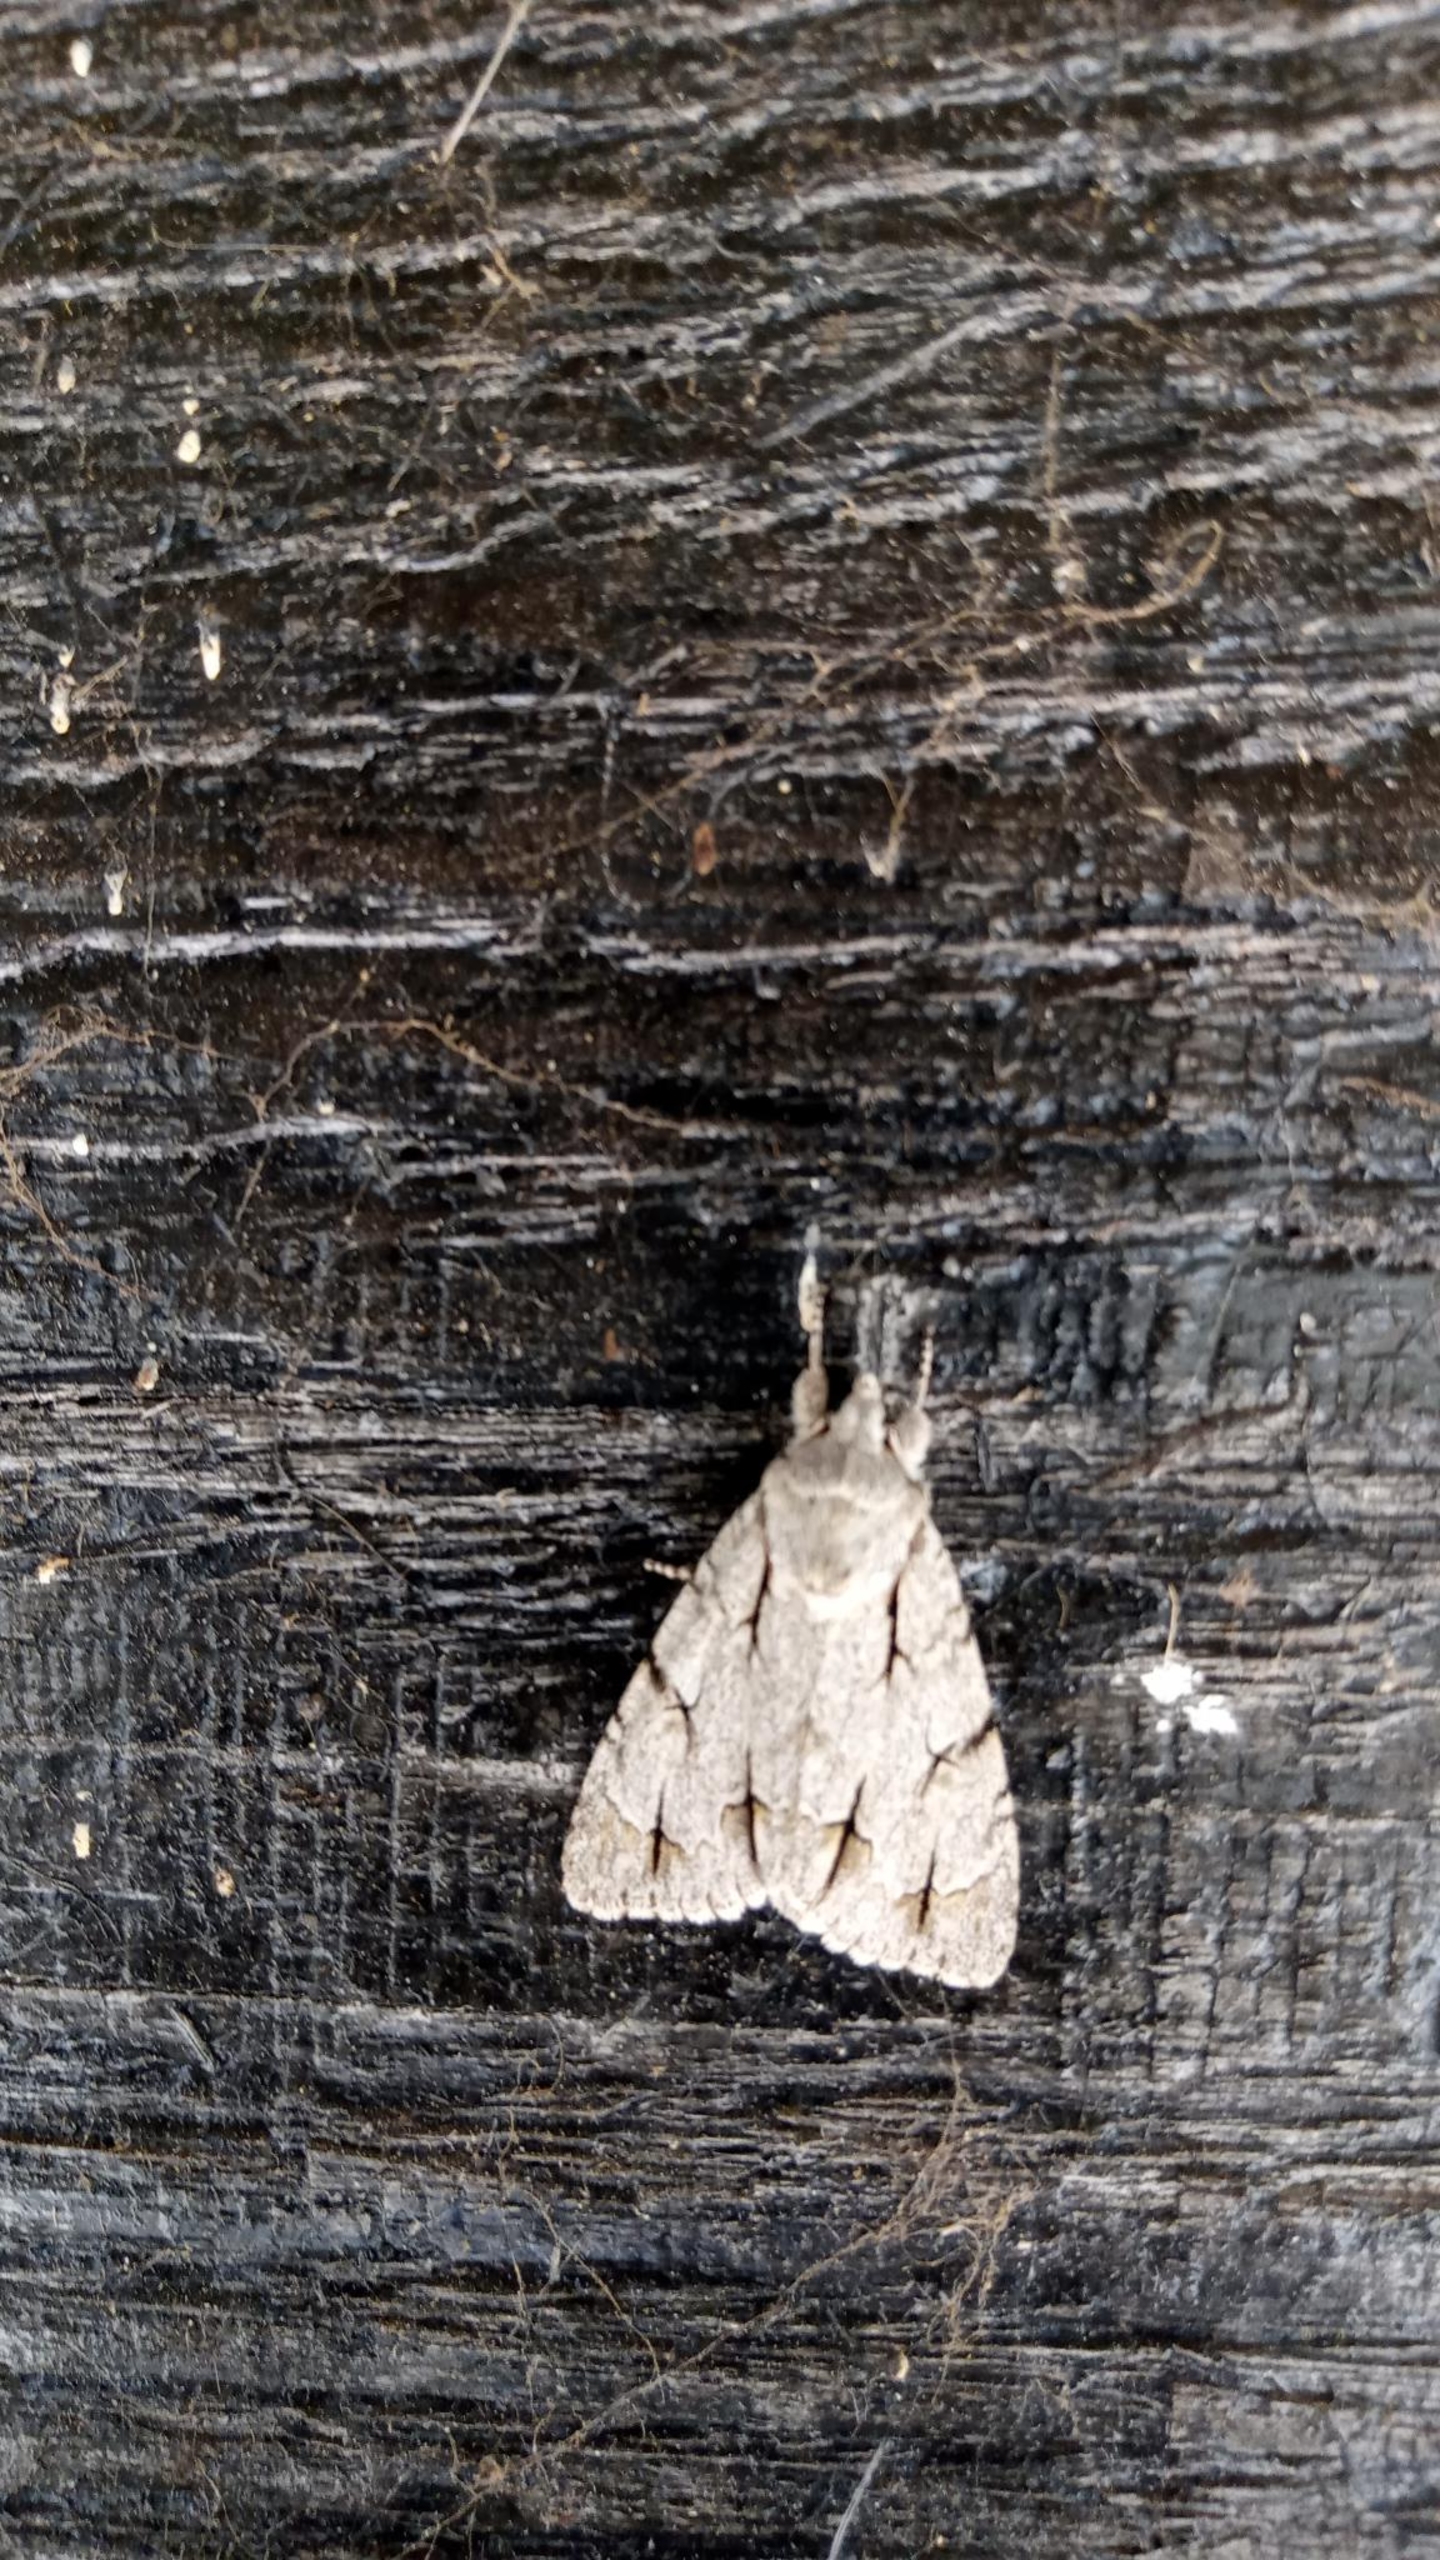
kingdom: Animalia
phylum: Arthropoda
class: Insecta
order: Lepidoptera
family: Noctuidae
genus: Acronicta
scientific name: Acronicta psi
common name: Psi-ugle
